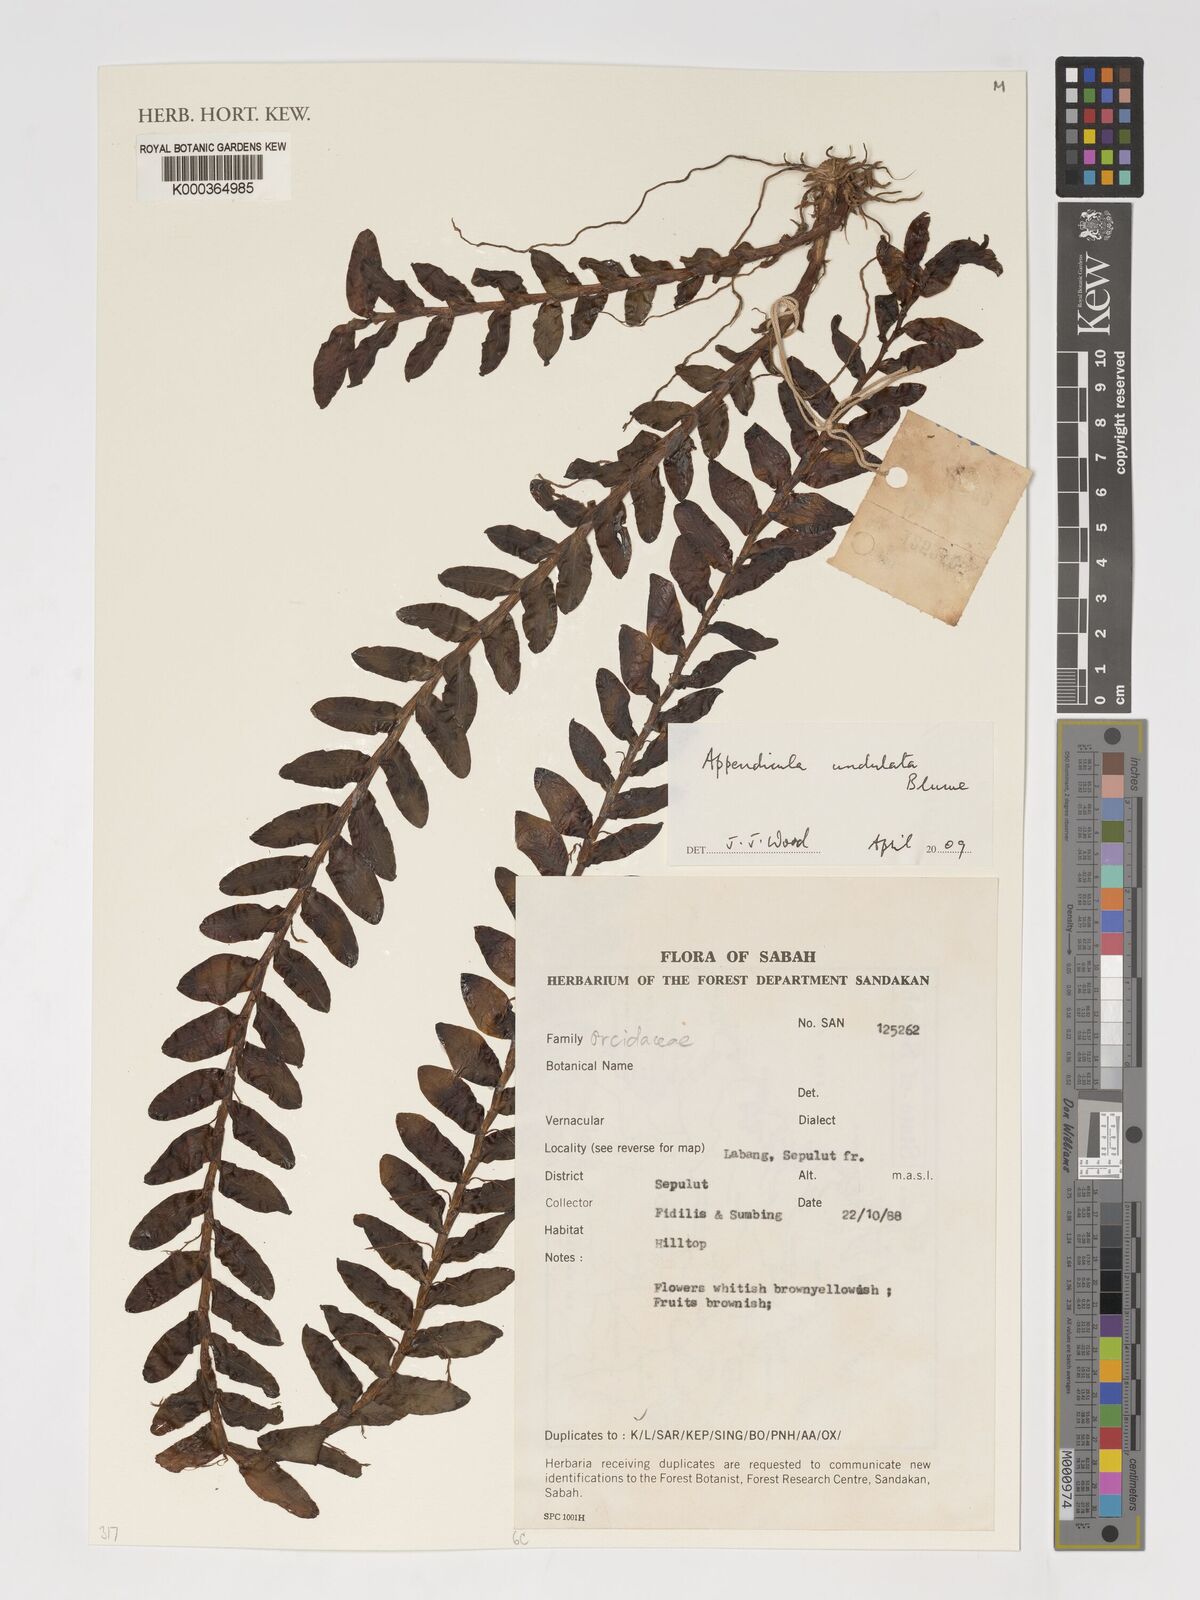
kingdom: Plantae
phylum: Tracheophyta
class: Liliopsida
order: Asparagales
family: Orchidaceae
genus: Appendicula
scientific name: Appendicula undulata
